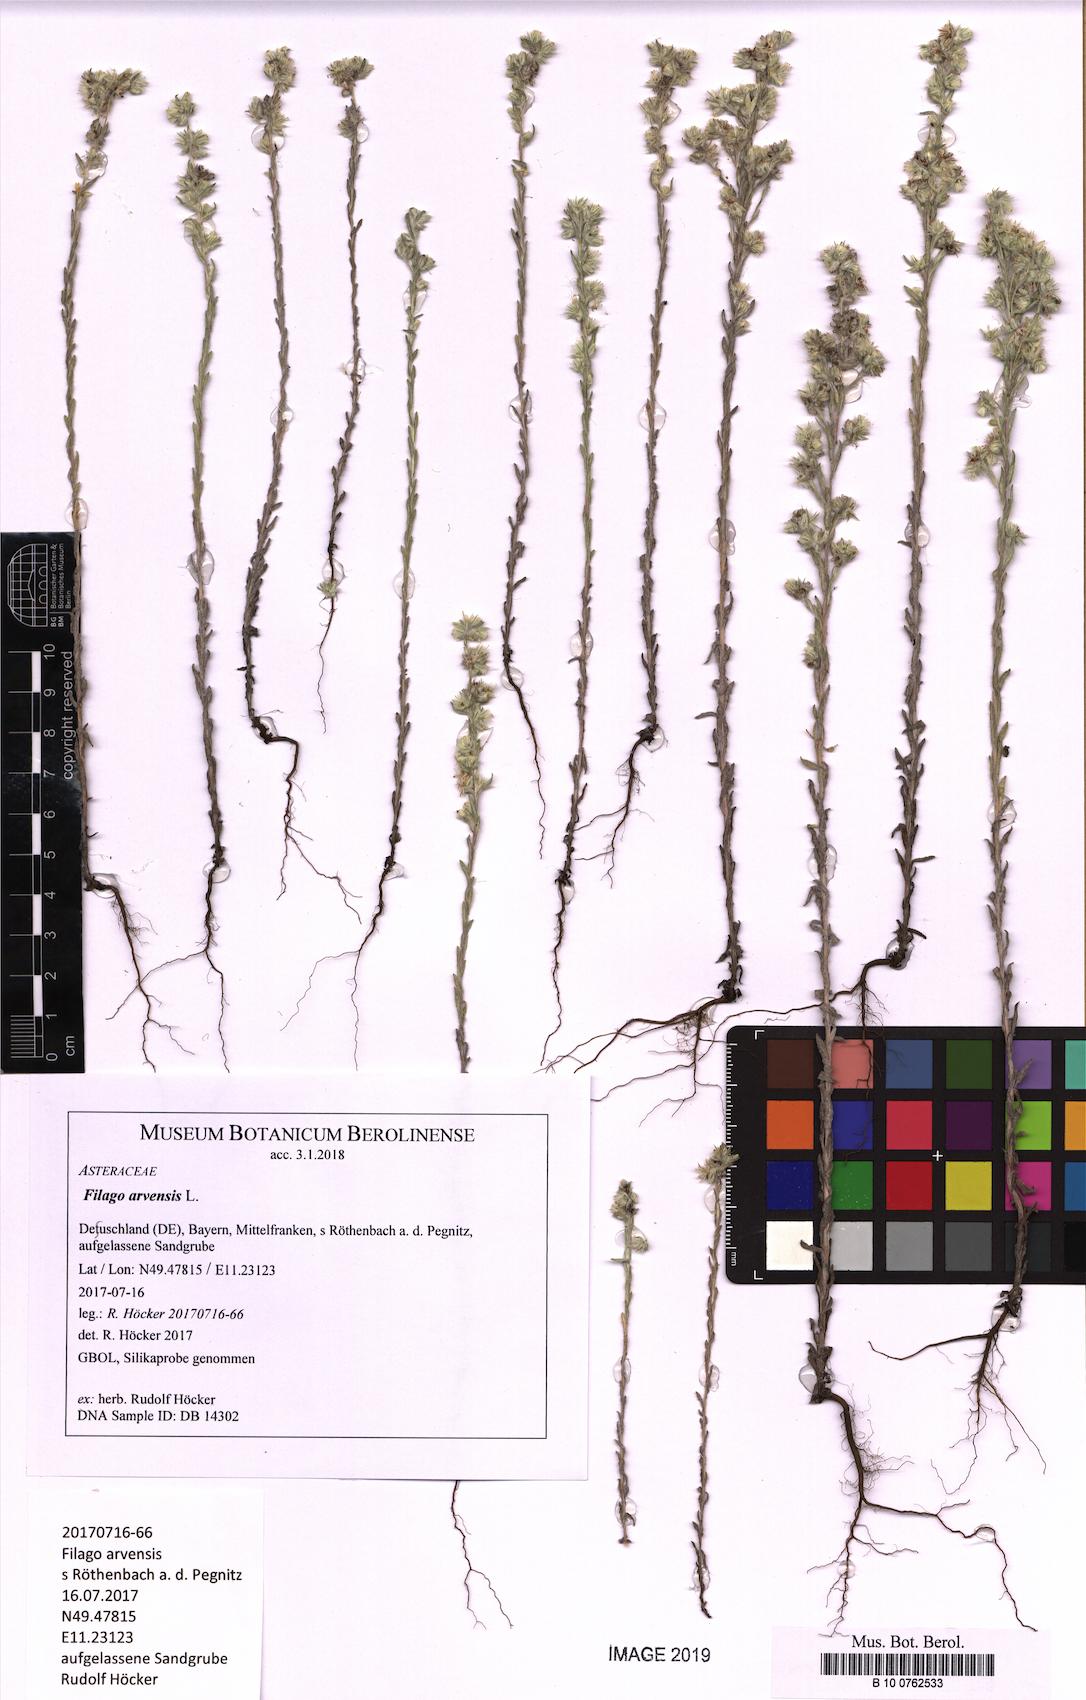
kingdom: Plantae
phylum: Tracheophyta
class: Magnoliopsida
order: Asterales
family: Asteraceae
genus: Filago
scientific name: Filago arvensis
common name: Field cudweed
